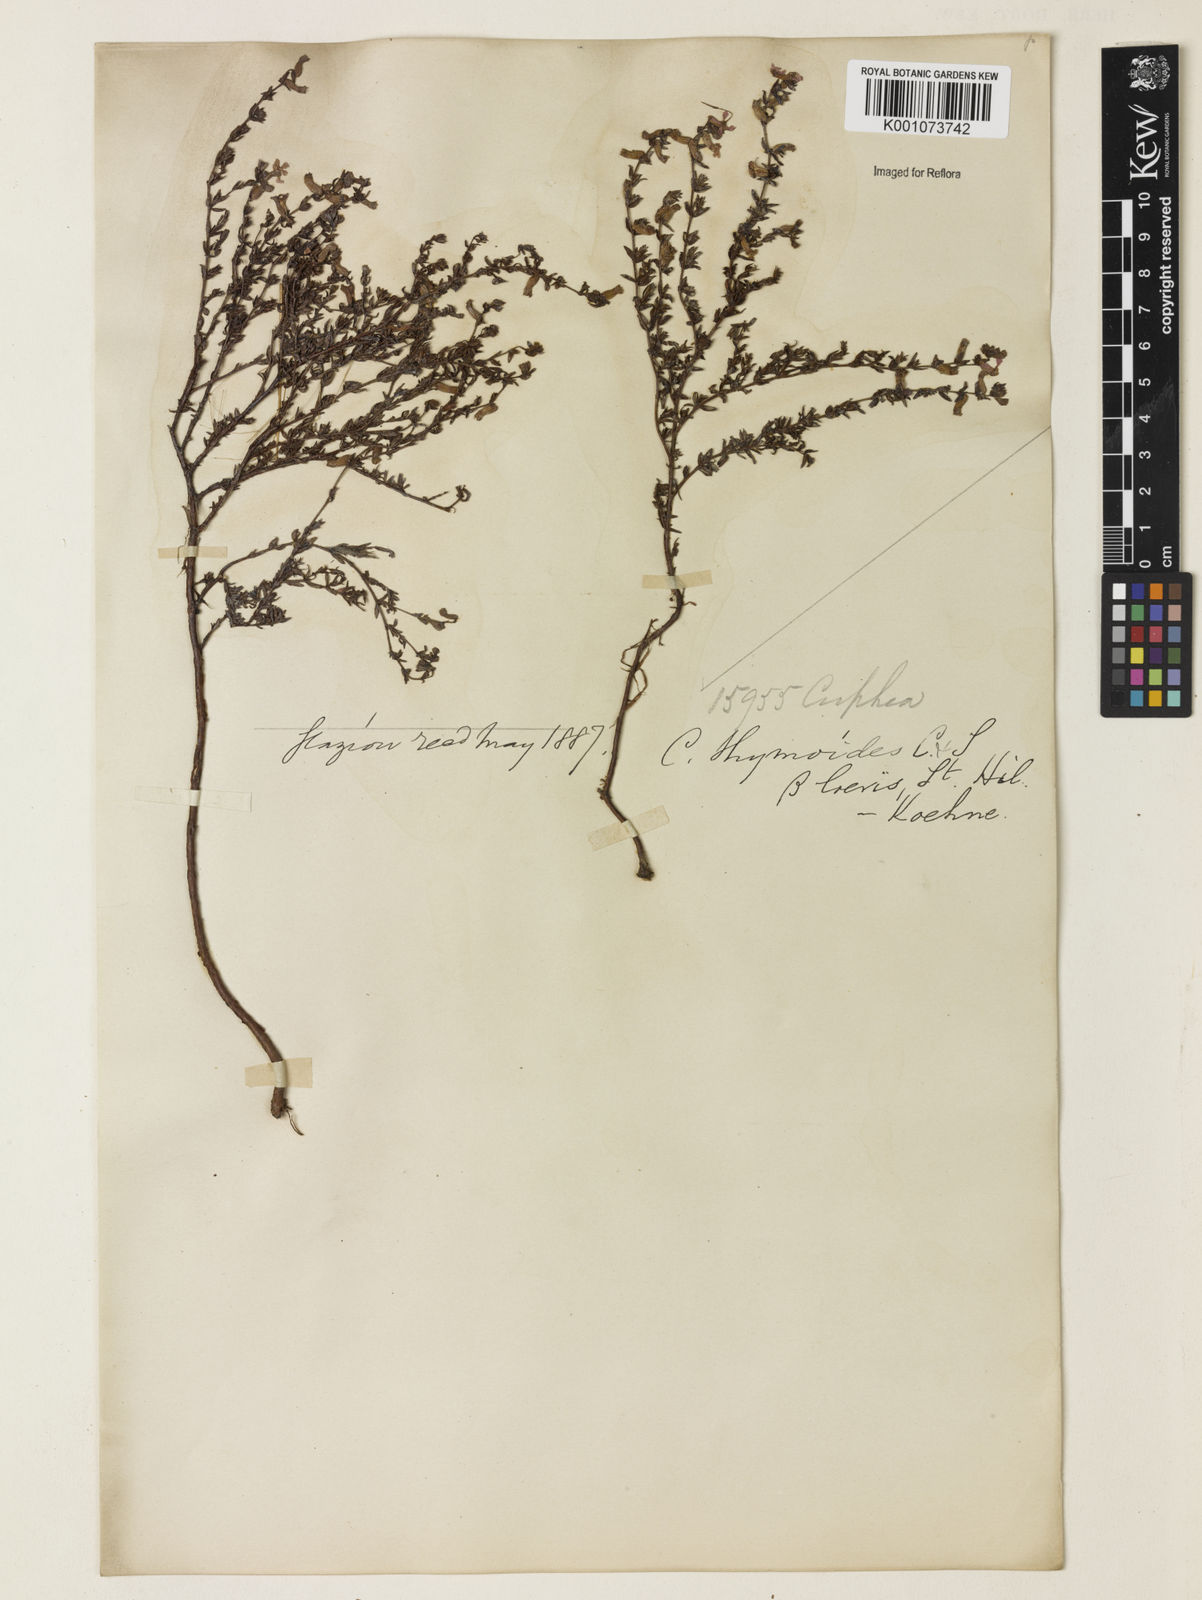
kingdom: Plantae
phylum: Tracheophyta
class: Magnoliopsida
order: Myrtales
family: Lythraceae
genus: Cuphea
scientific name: Cuphea thymoides
